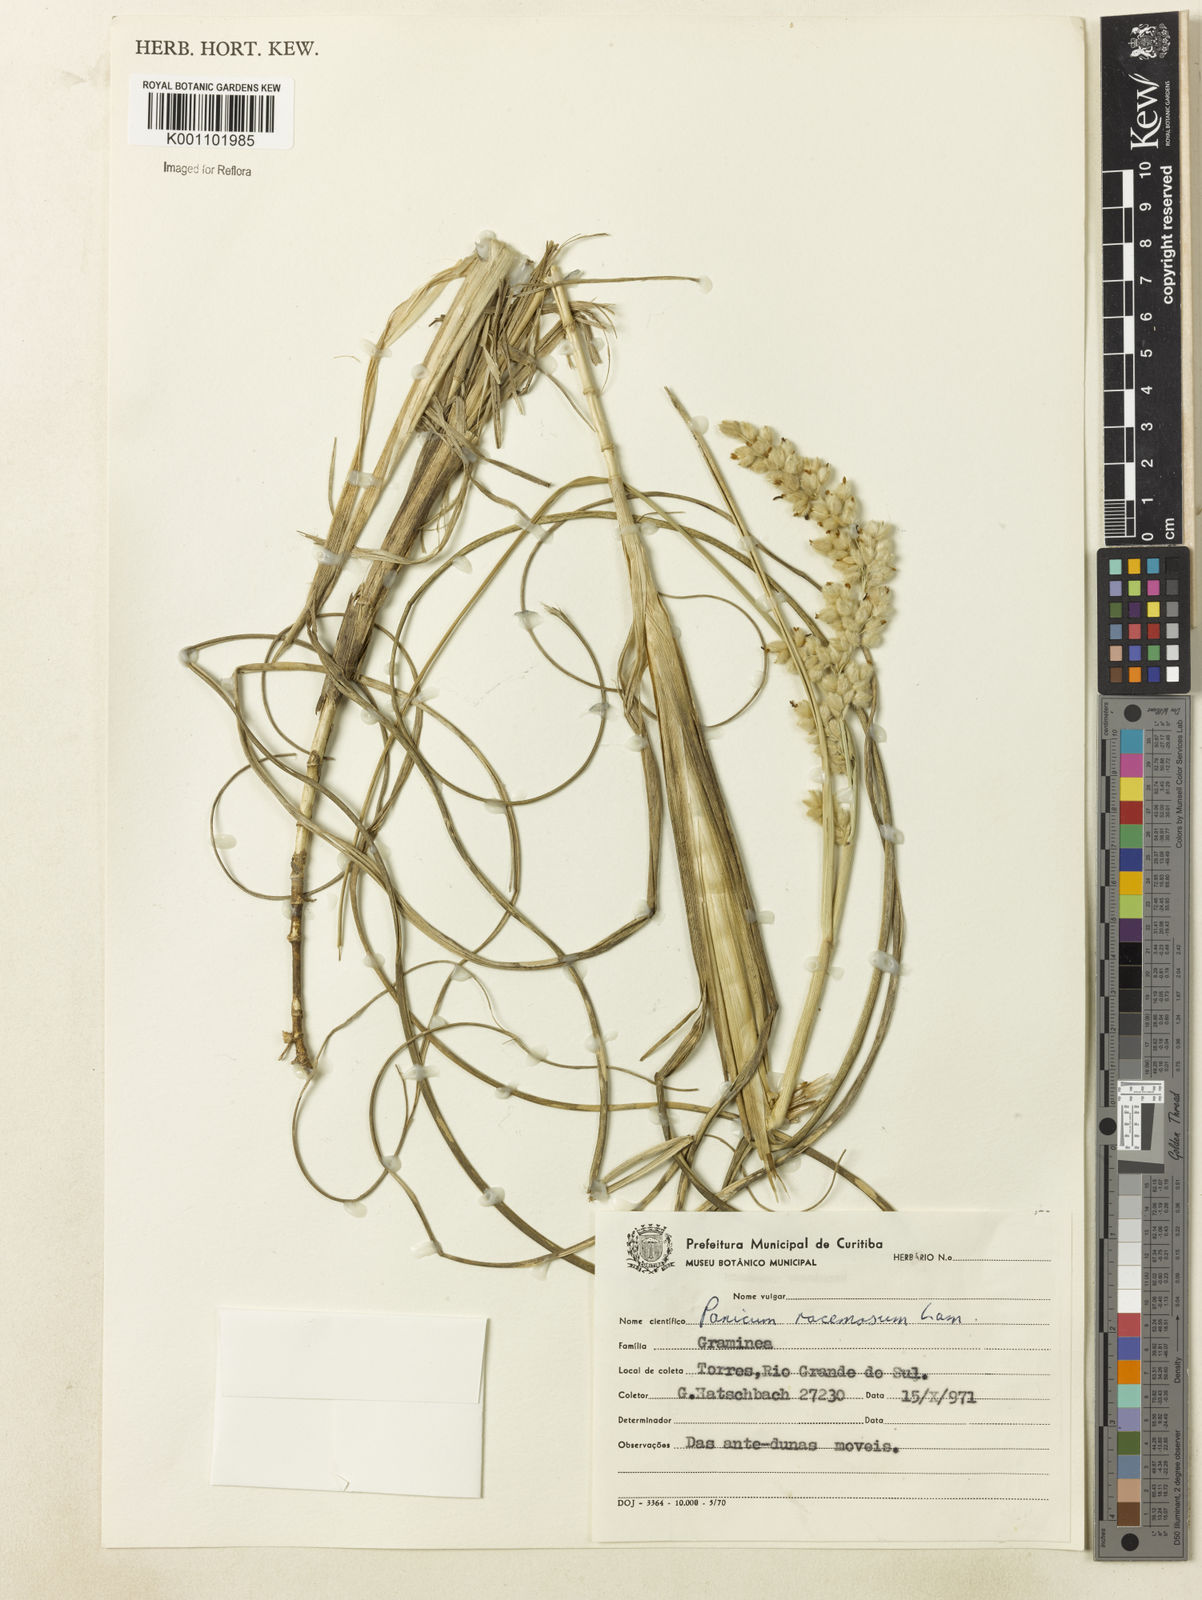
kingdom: Plantae
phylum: Tracheophyta
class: Liliopsida
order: Poales
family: Poaceae
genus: Panicum
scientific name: Panicum racemosum
